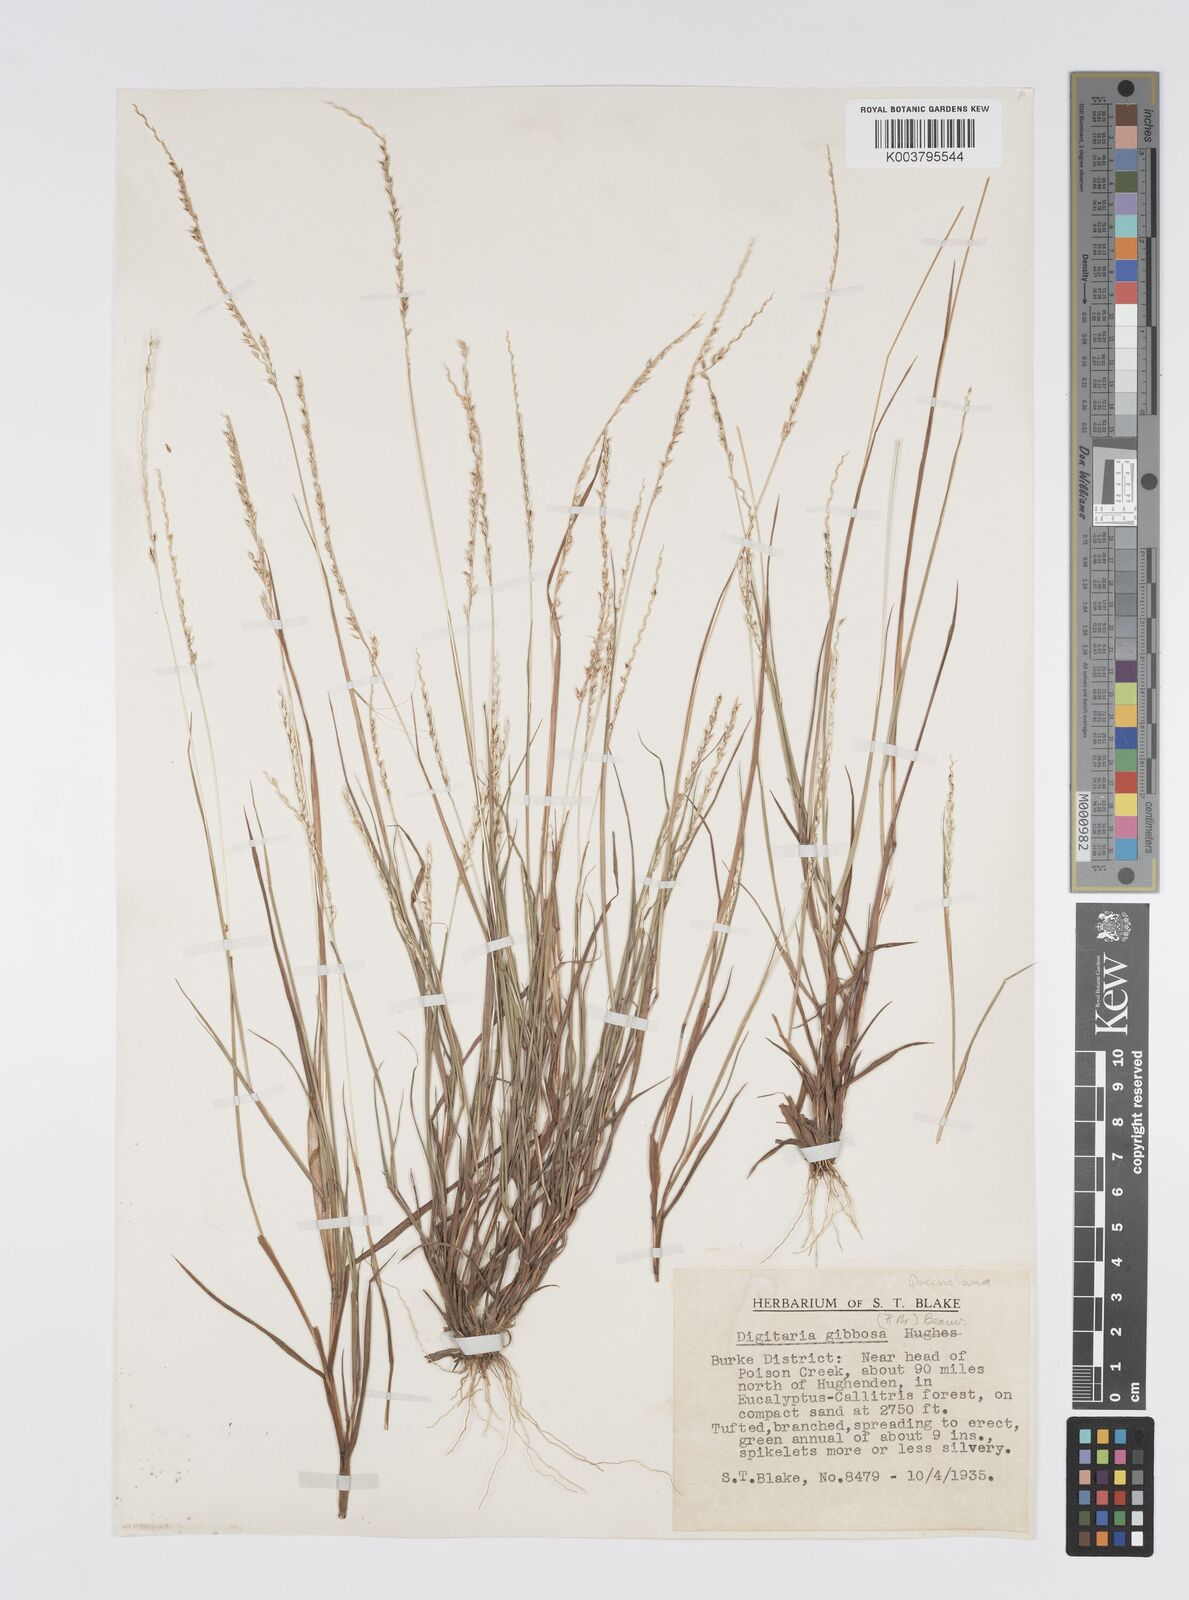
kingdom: Plantae
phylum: Tracheophyta
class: Liliopsida
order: Poales
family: Poaceae
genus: Digitaria
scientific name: Digitaria gibbosa
